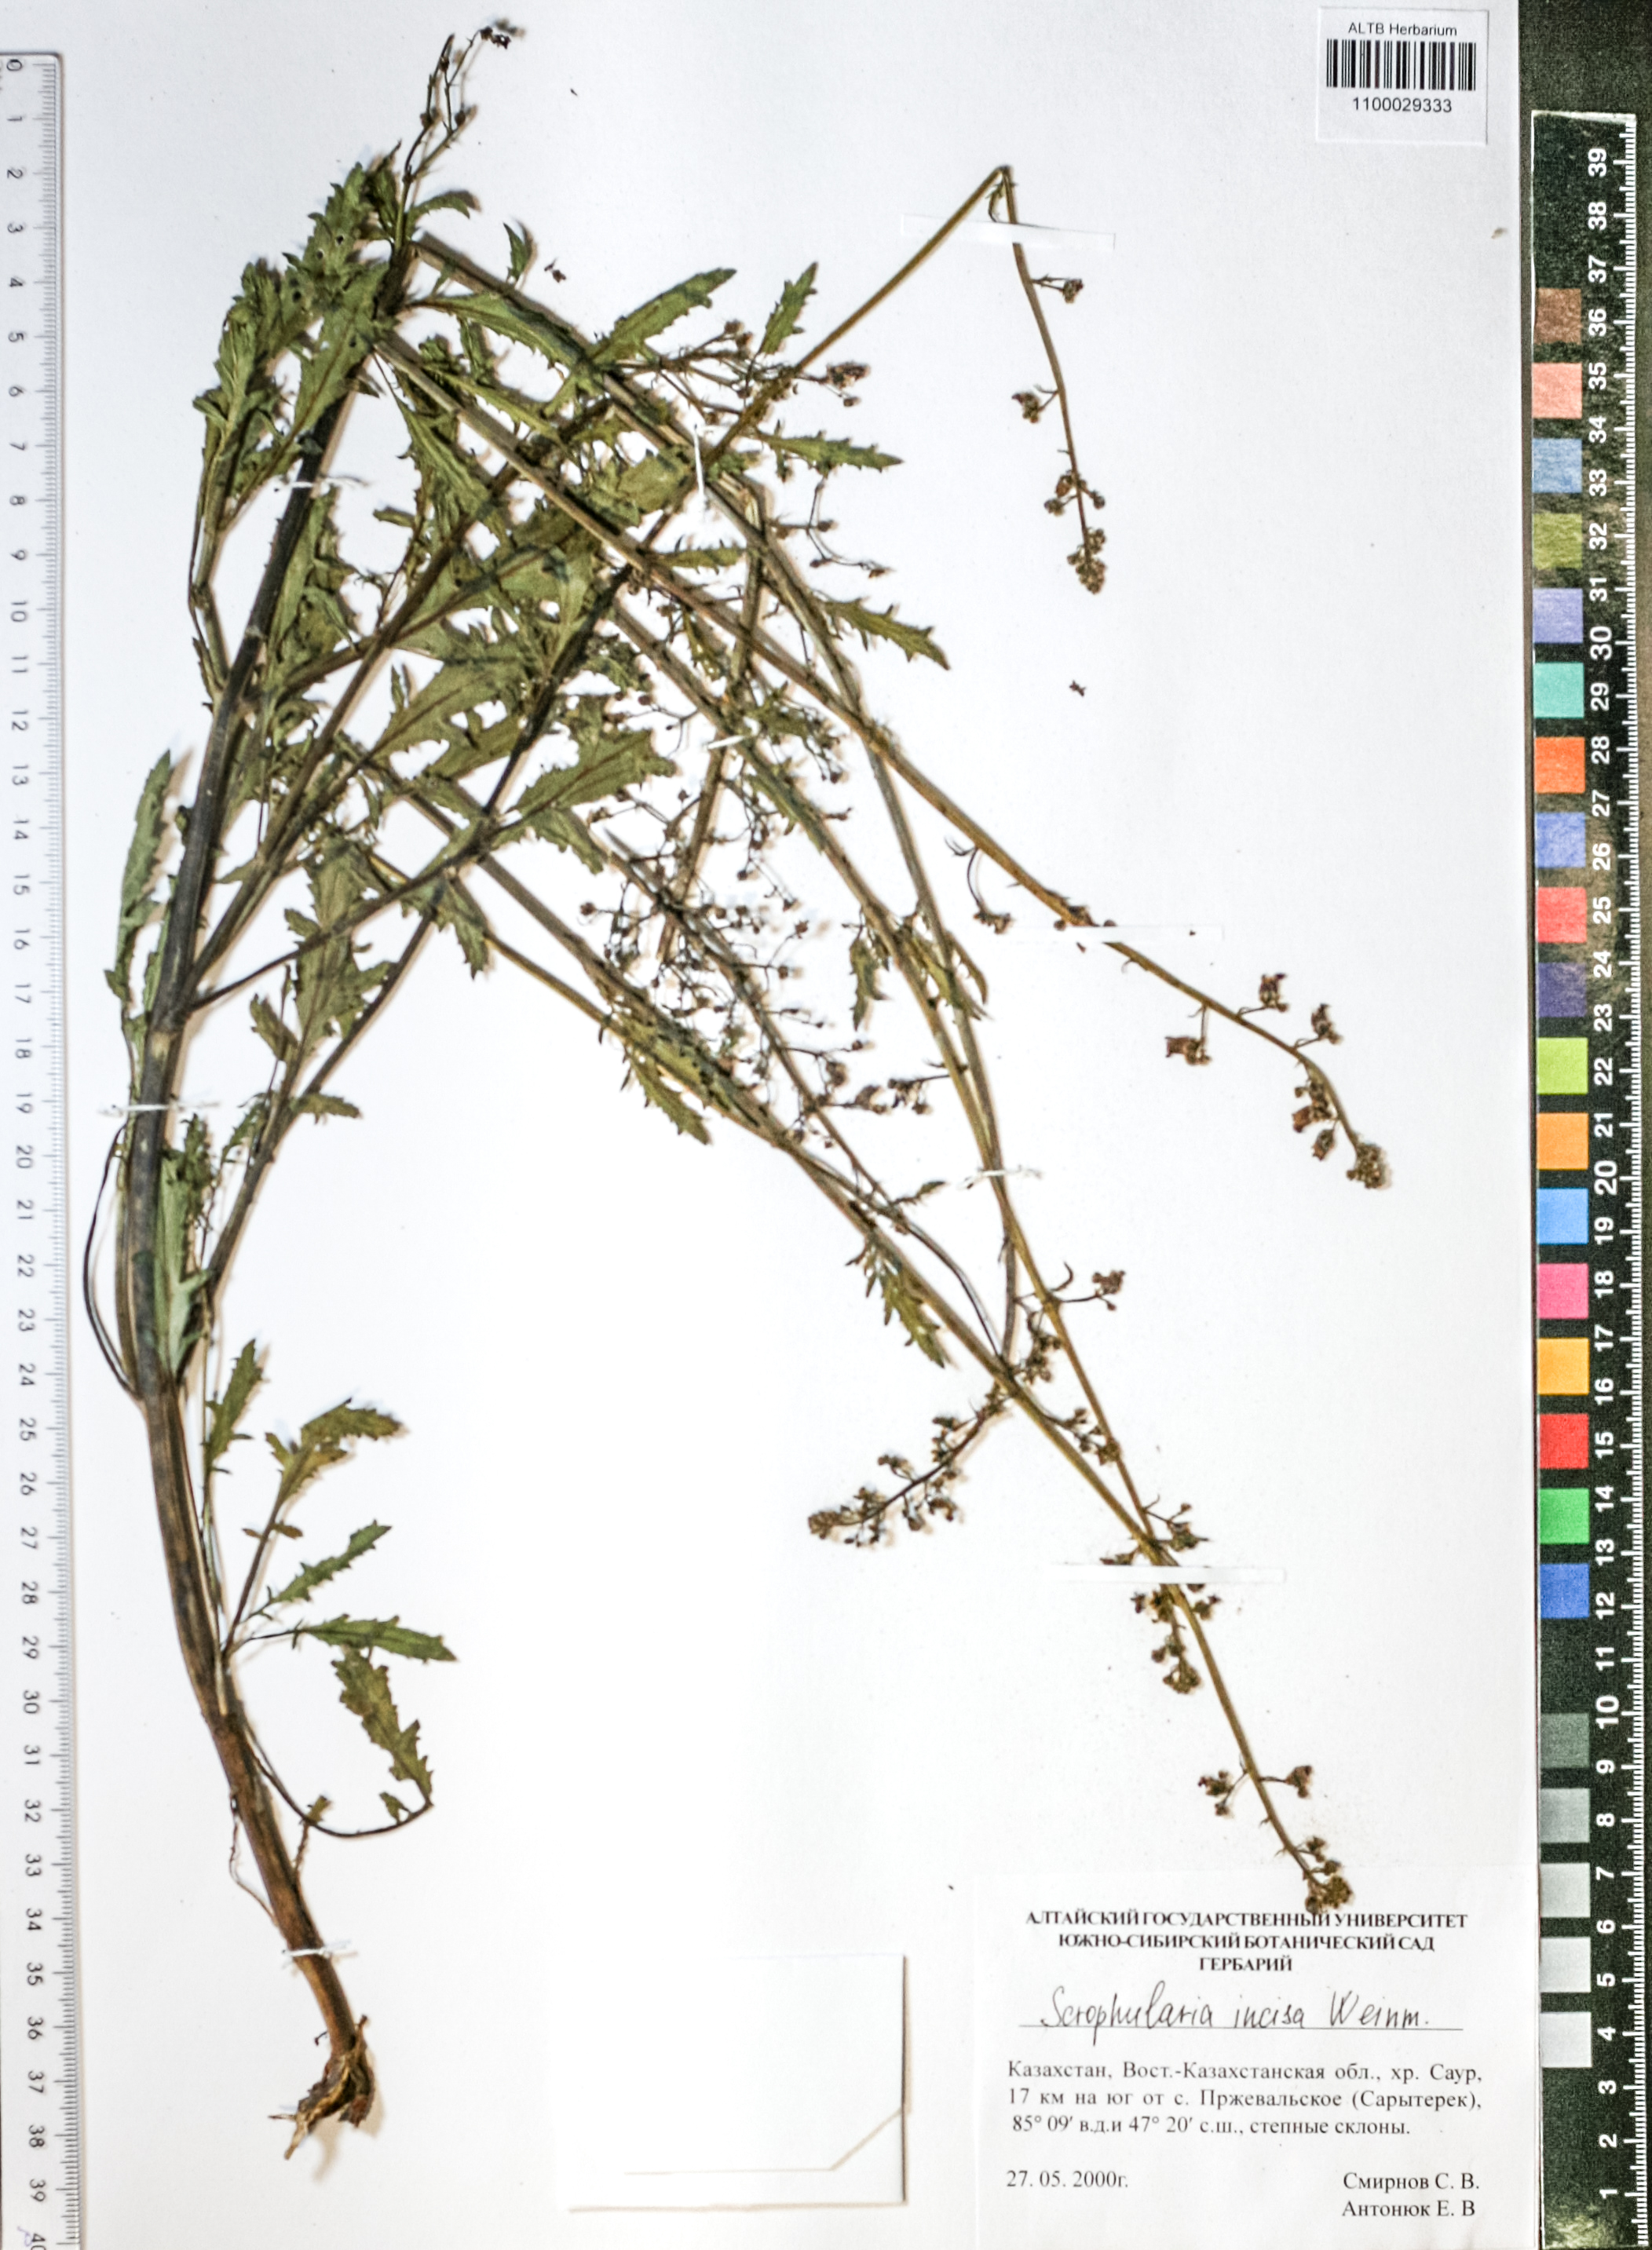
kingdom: Plantae
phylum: Tracheophyta
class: Magnoliopsida
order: Lamiales
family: Scrophulariaceae
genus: Scrophularia
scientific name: Scrophularia incisa
